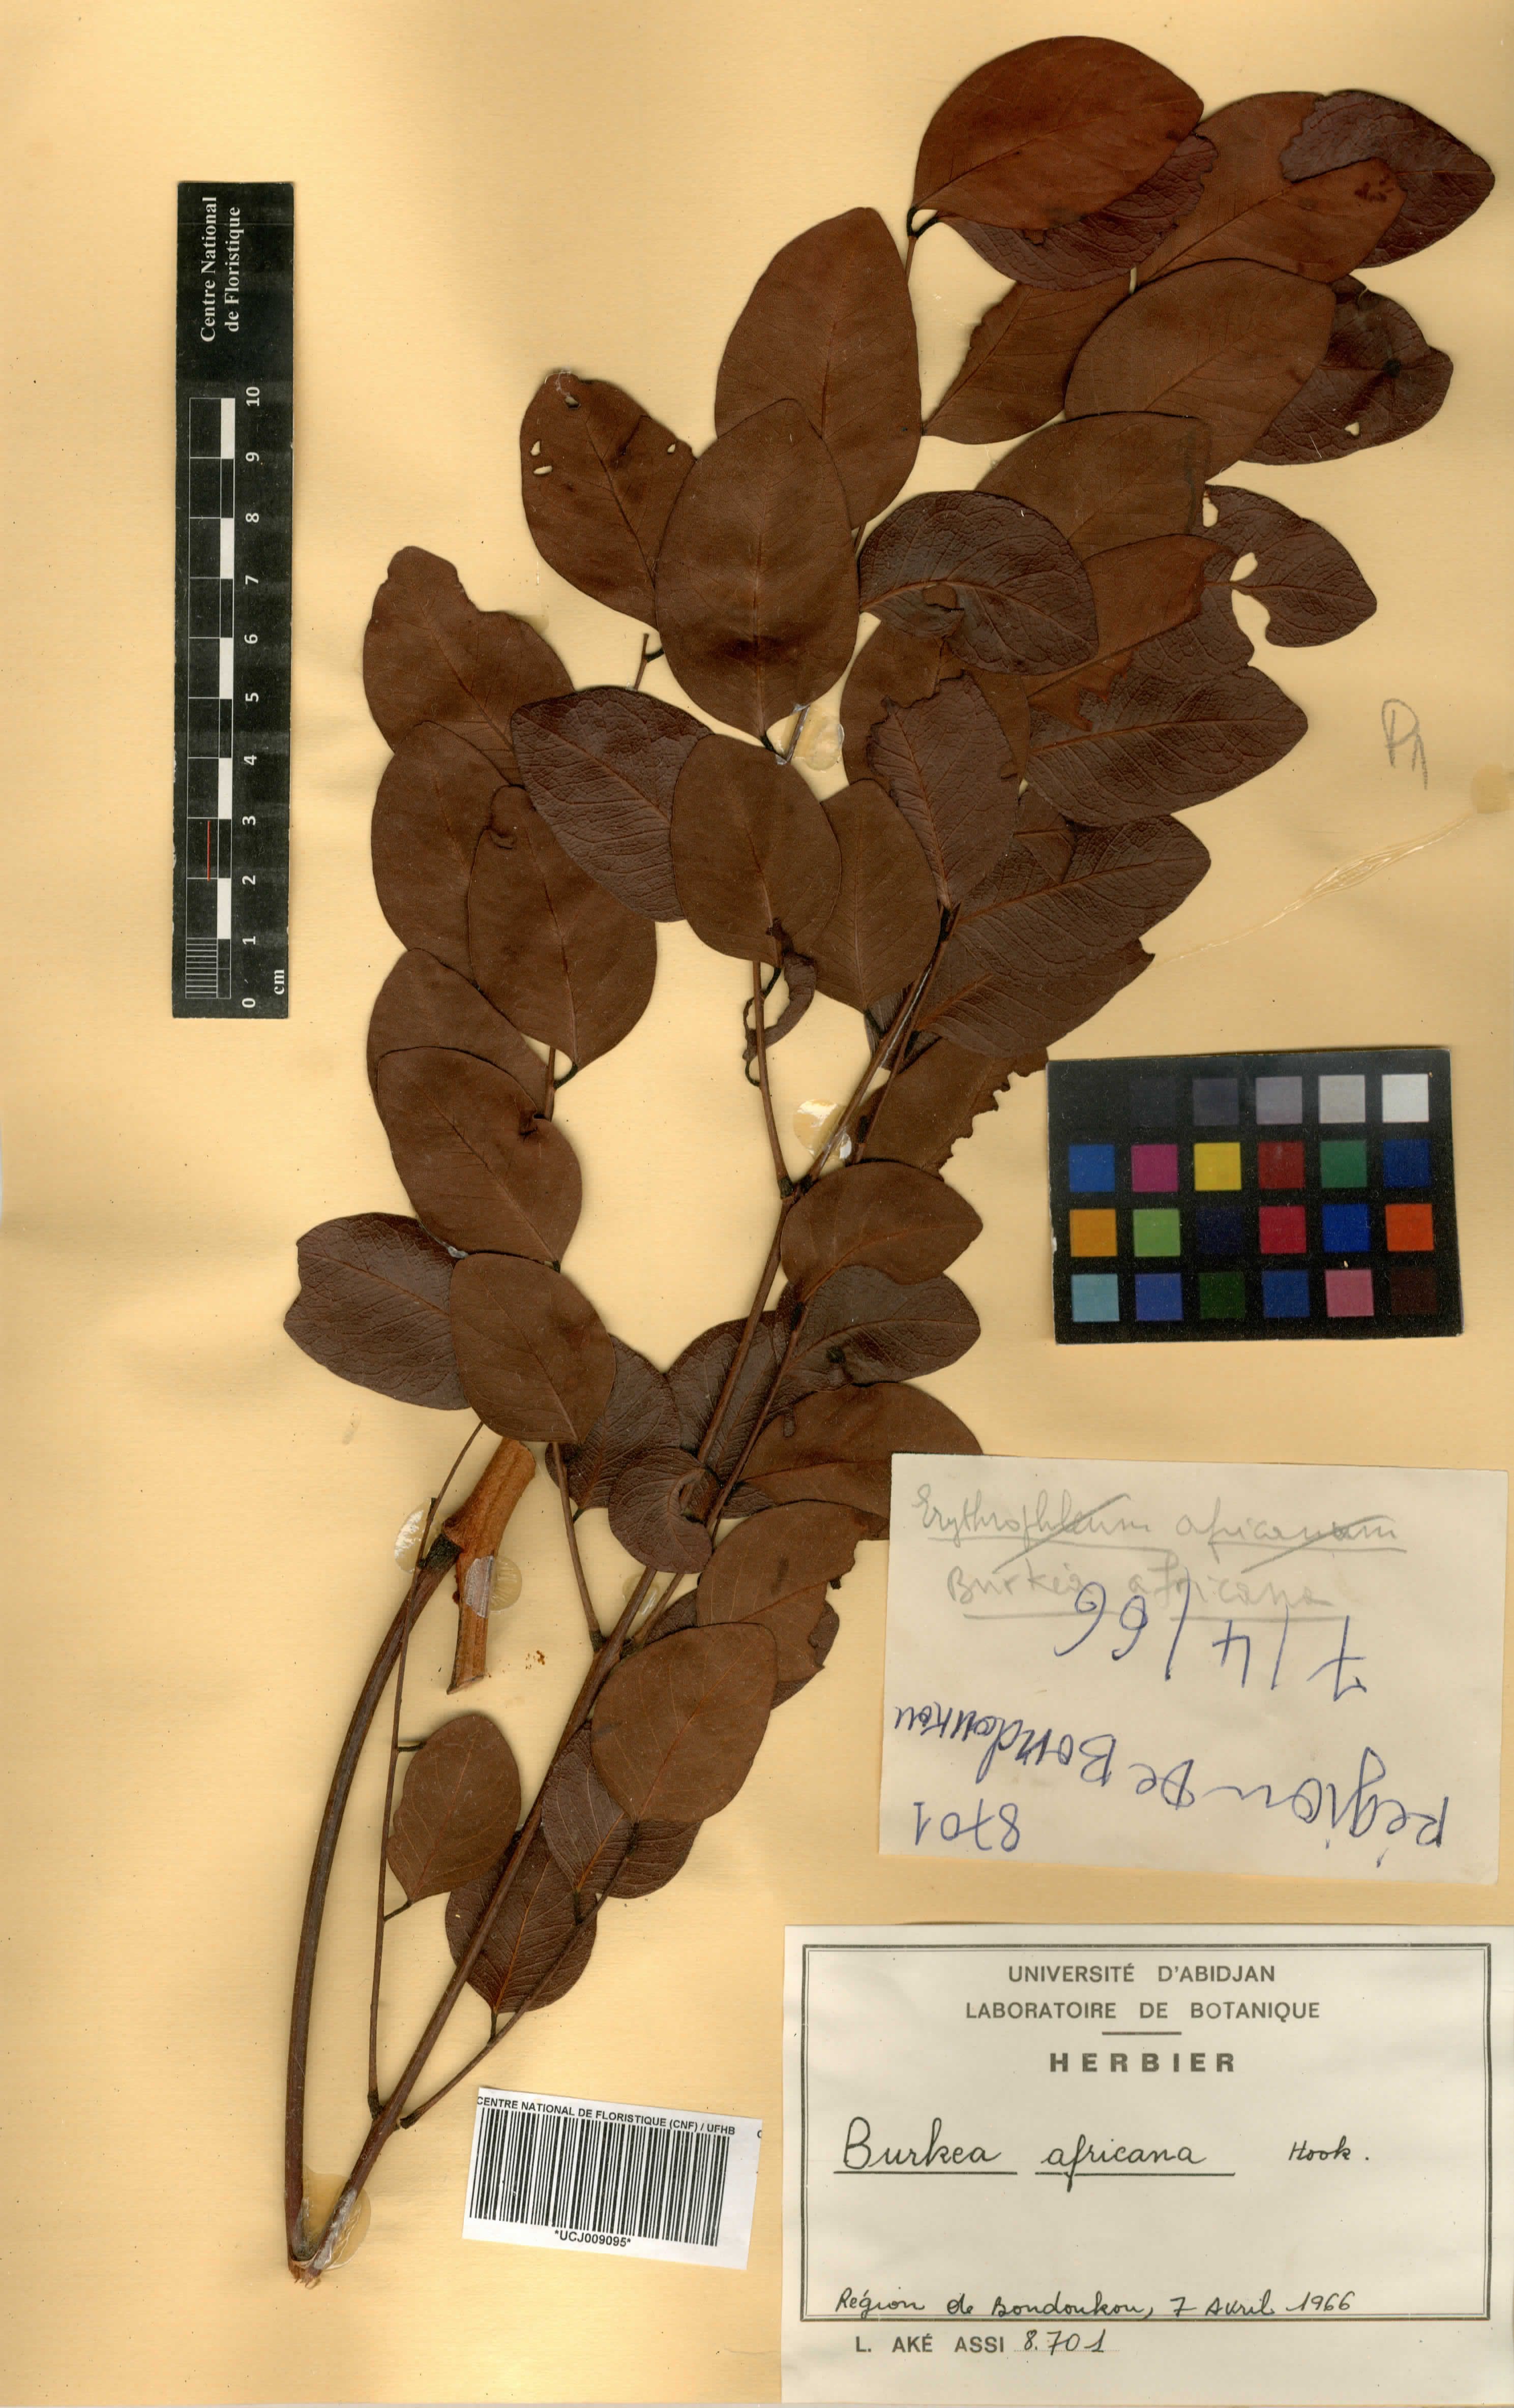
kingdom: Plantae
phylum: Tracheophyta
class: Magnoliopsida
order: Fabales
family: Fabaceae
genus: Burkea
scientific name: Burkea africana
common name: Mkalati tree
